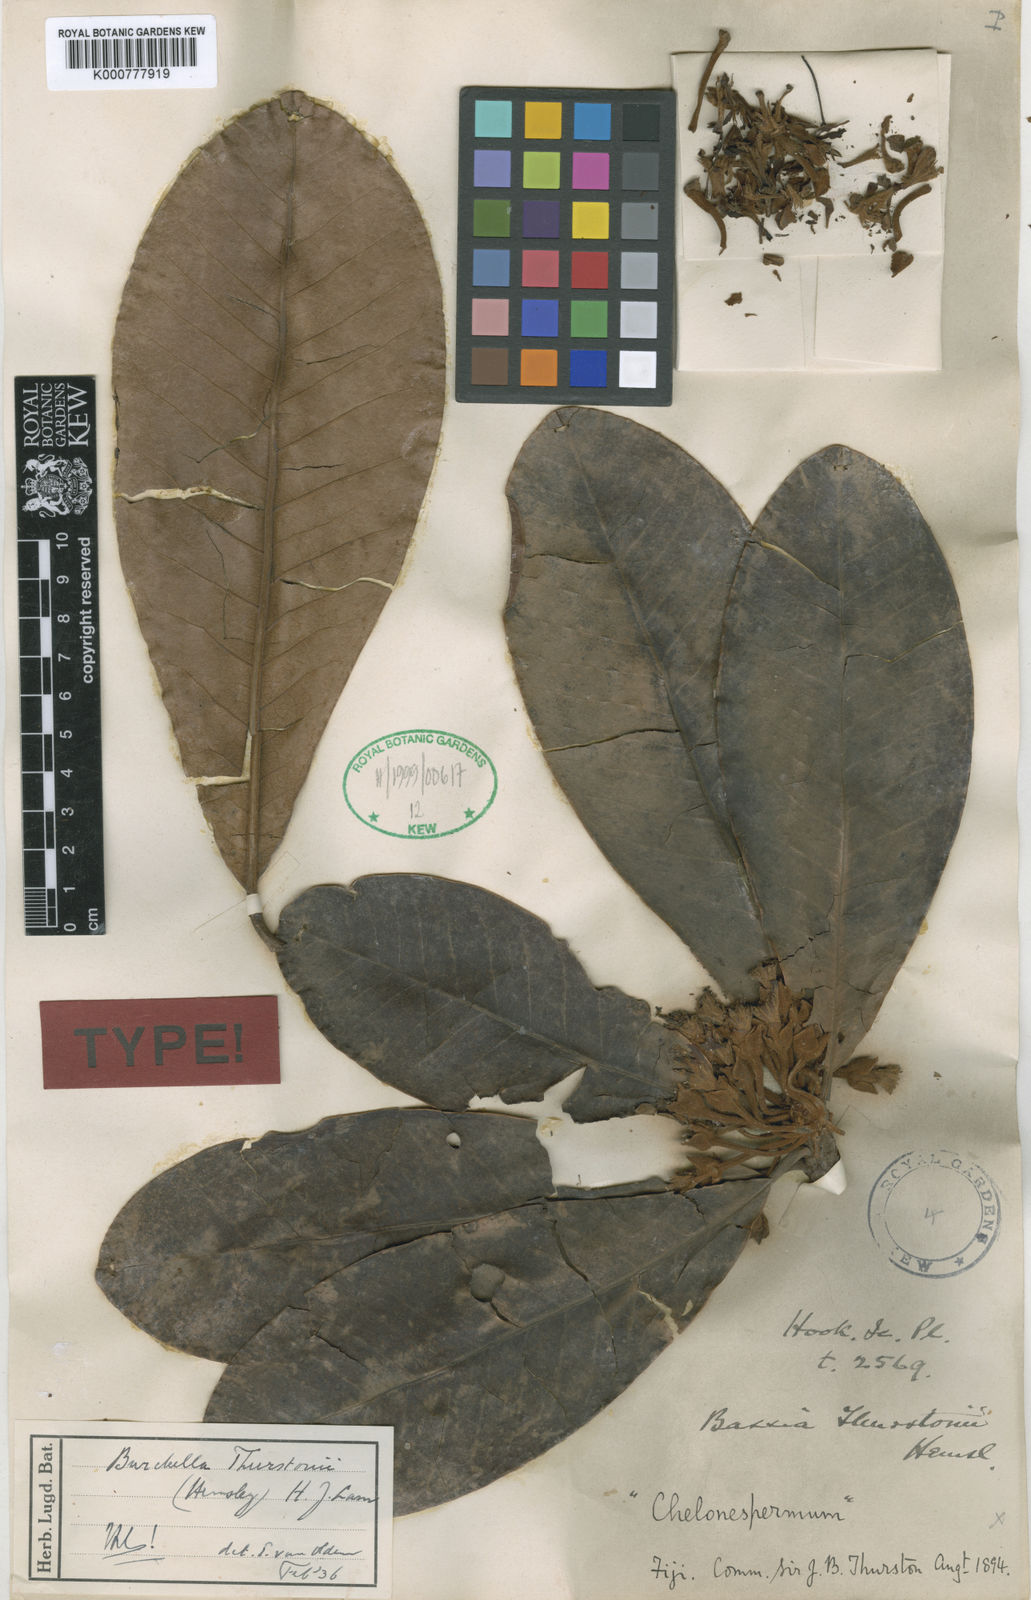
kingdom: Plantae
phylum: Tracheophyta
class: Magnoliopsida
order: Ericales
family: Sapotaceae
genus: Burckella
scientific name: Burckella thurstonii
